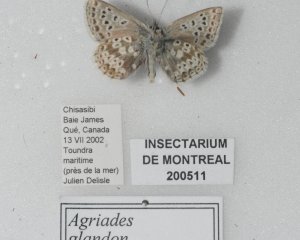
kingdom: Animalia
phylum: Arthropoda
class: Insecta
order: Lepidoptera
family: Lycaenidae
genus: Agriades
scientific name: Agriades glandon
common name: Arctic Blue
